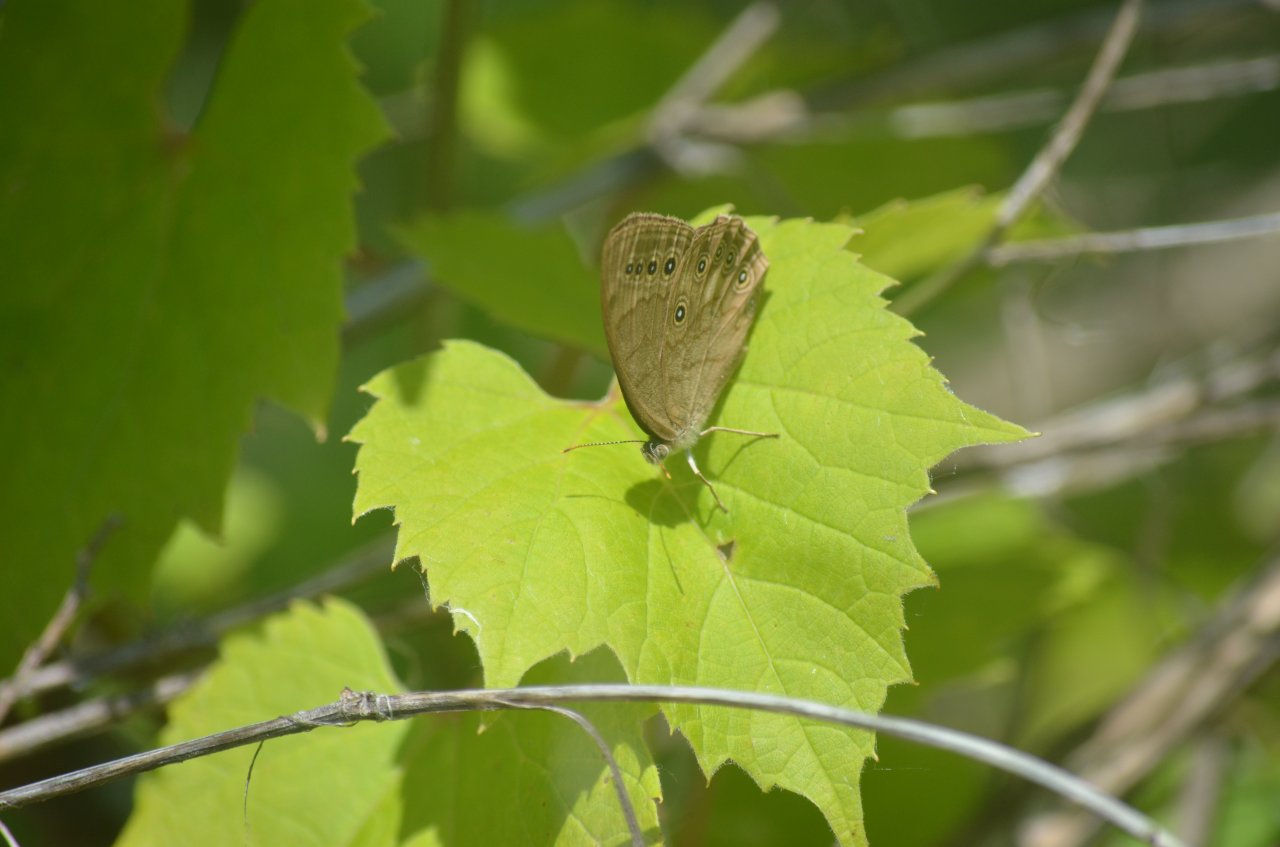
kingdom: Animalia
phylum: Arthropoda
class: Insecta
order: Lepidoptera
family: Nymphalidae
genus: Lethe
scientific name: Lethe eurydice
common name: Eyed Brown
